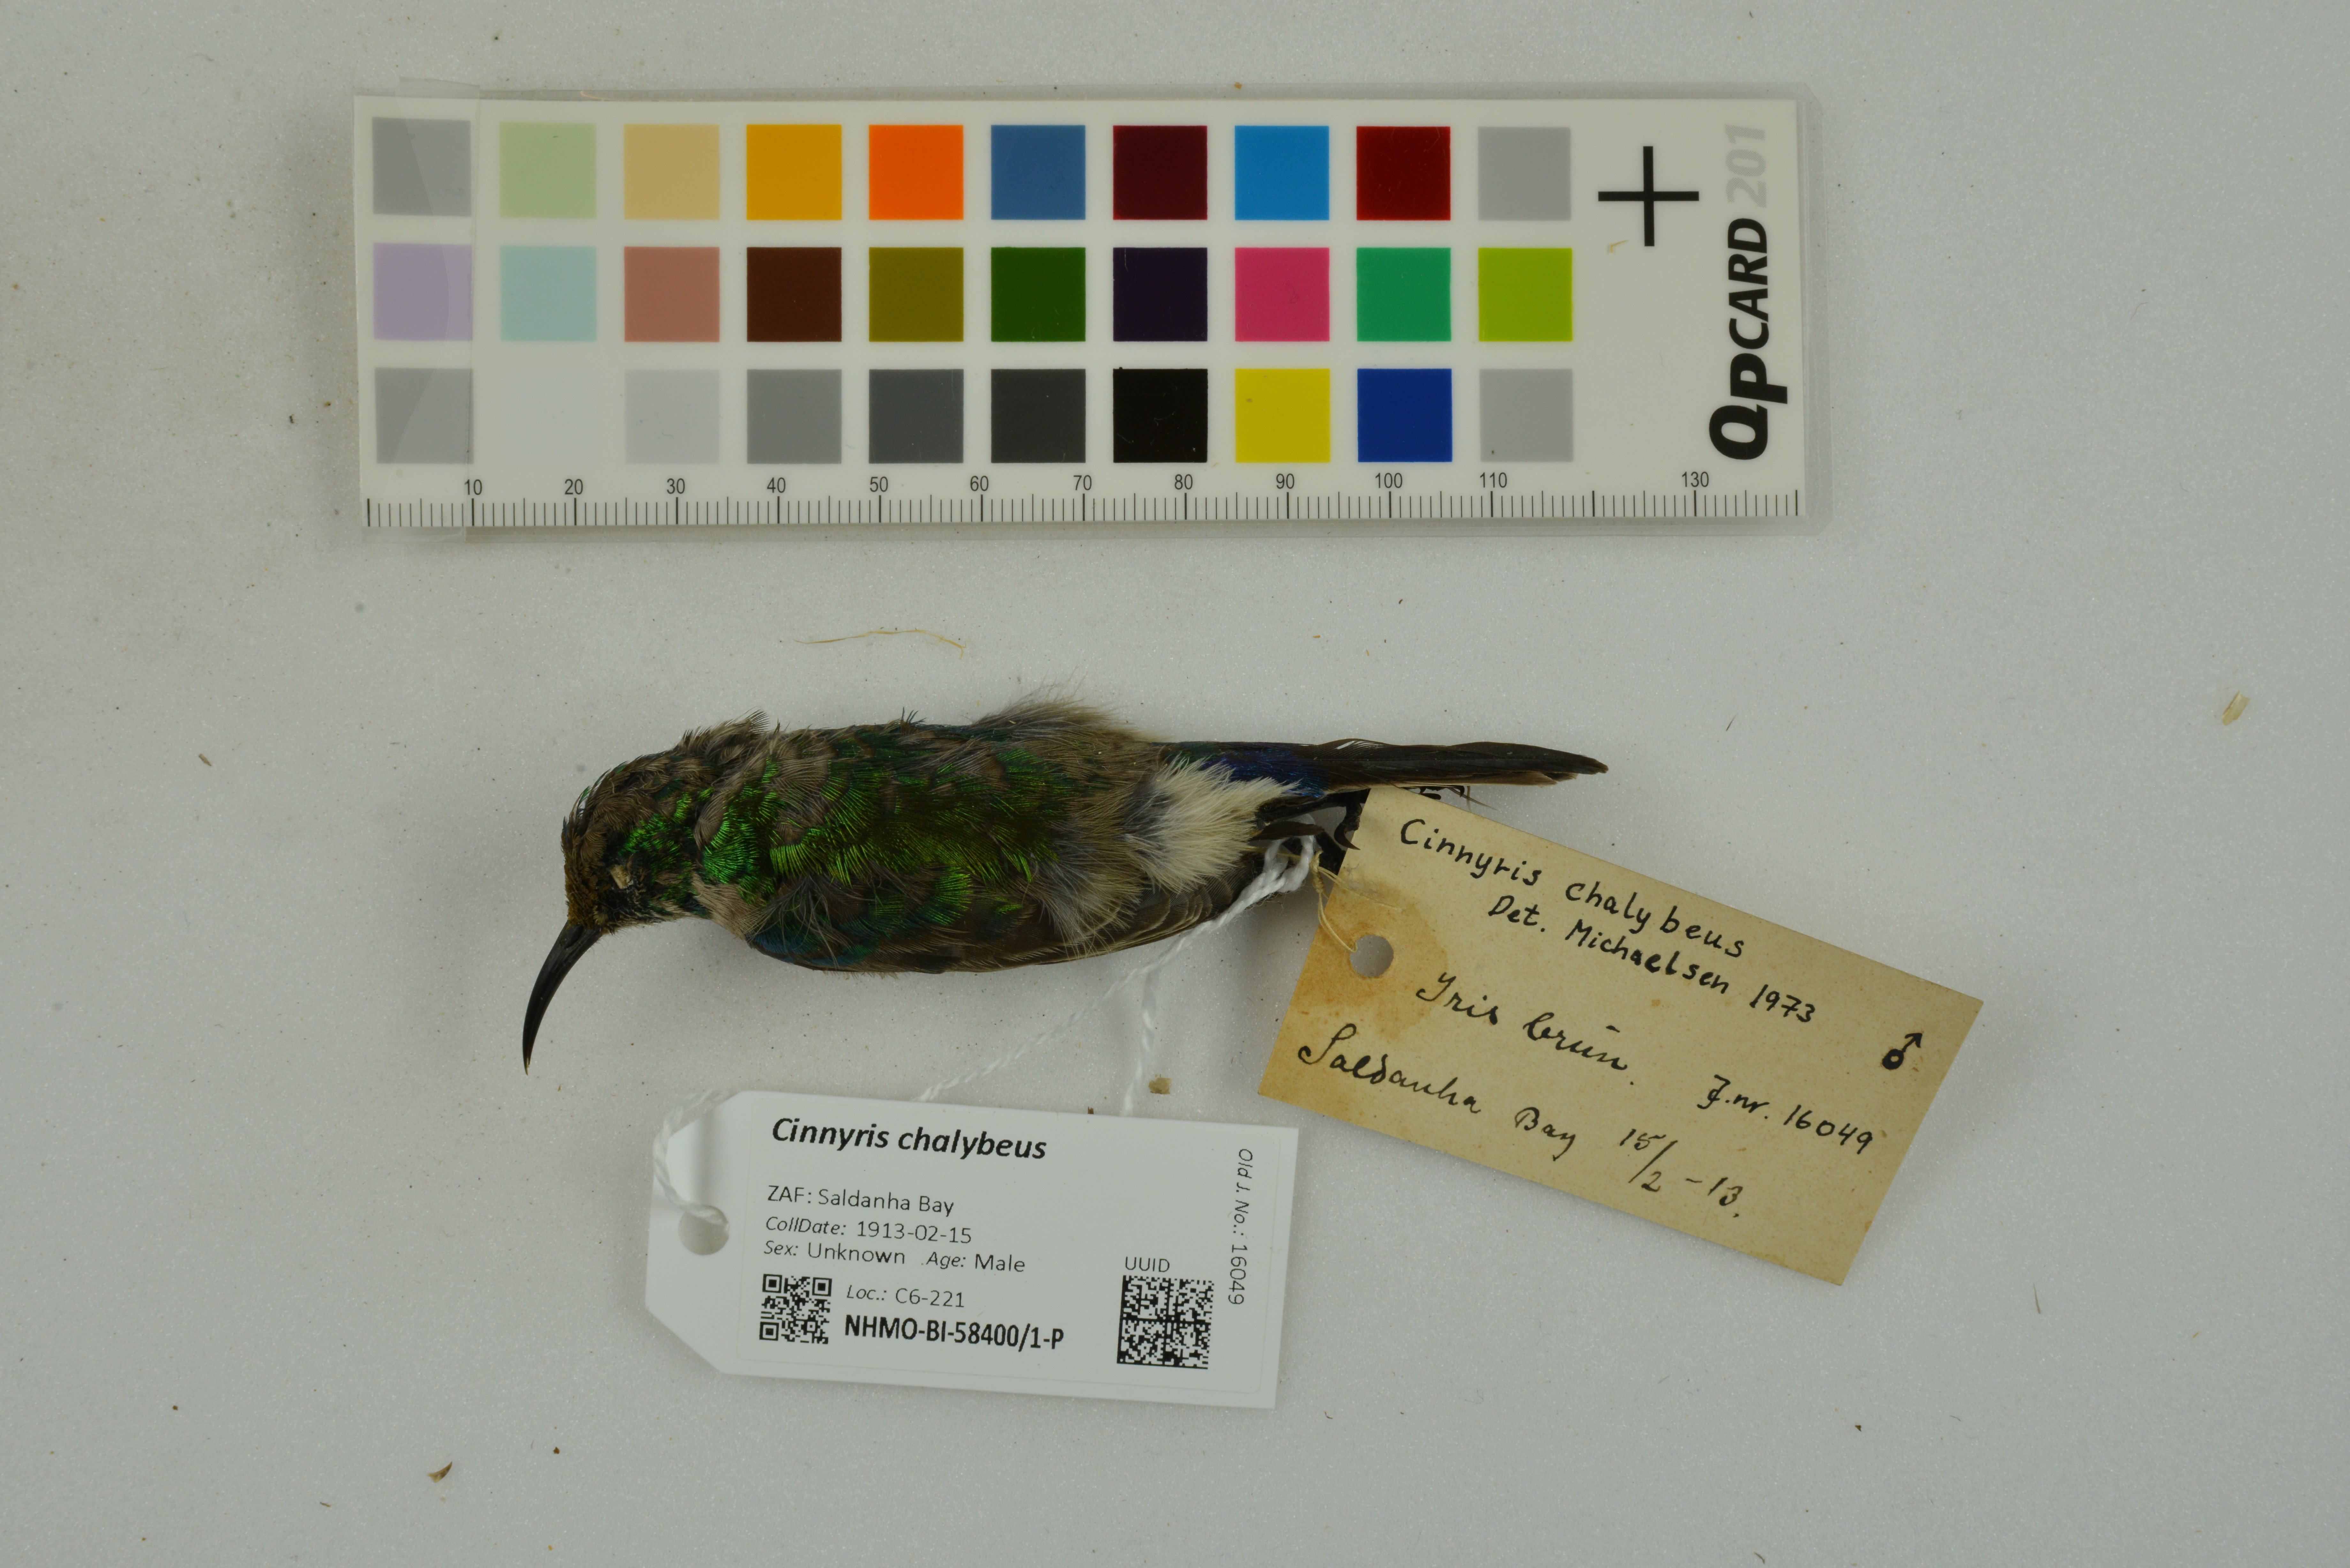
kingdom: Animalia
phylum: Chordata
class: Aves
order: Passeriformes
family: Nectariniidae
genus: Cinnyris
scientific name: Cinnyris chalybeus
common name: Southern double-collared sunbird
